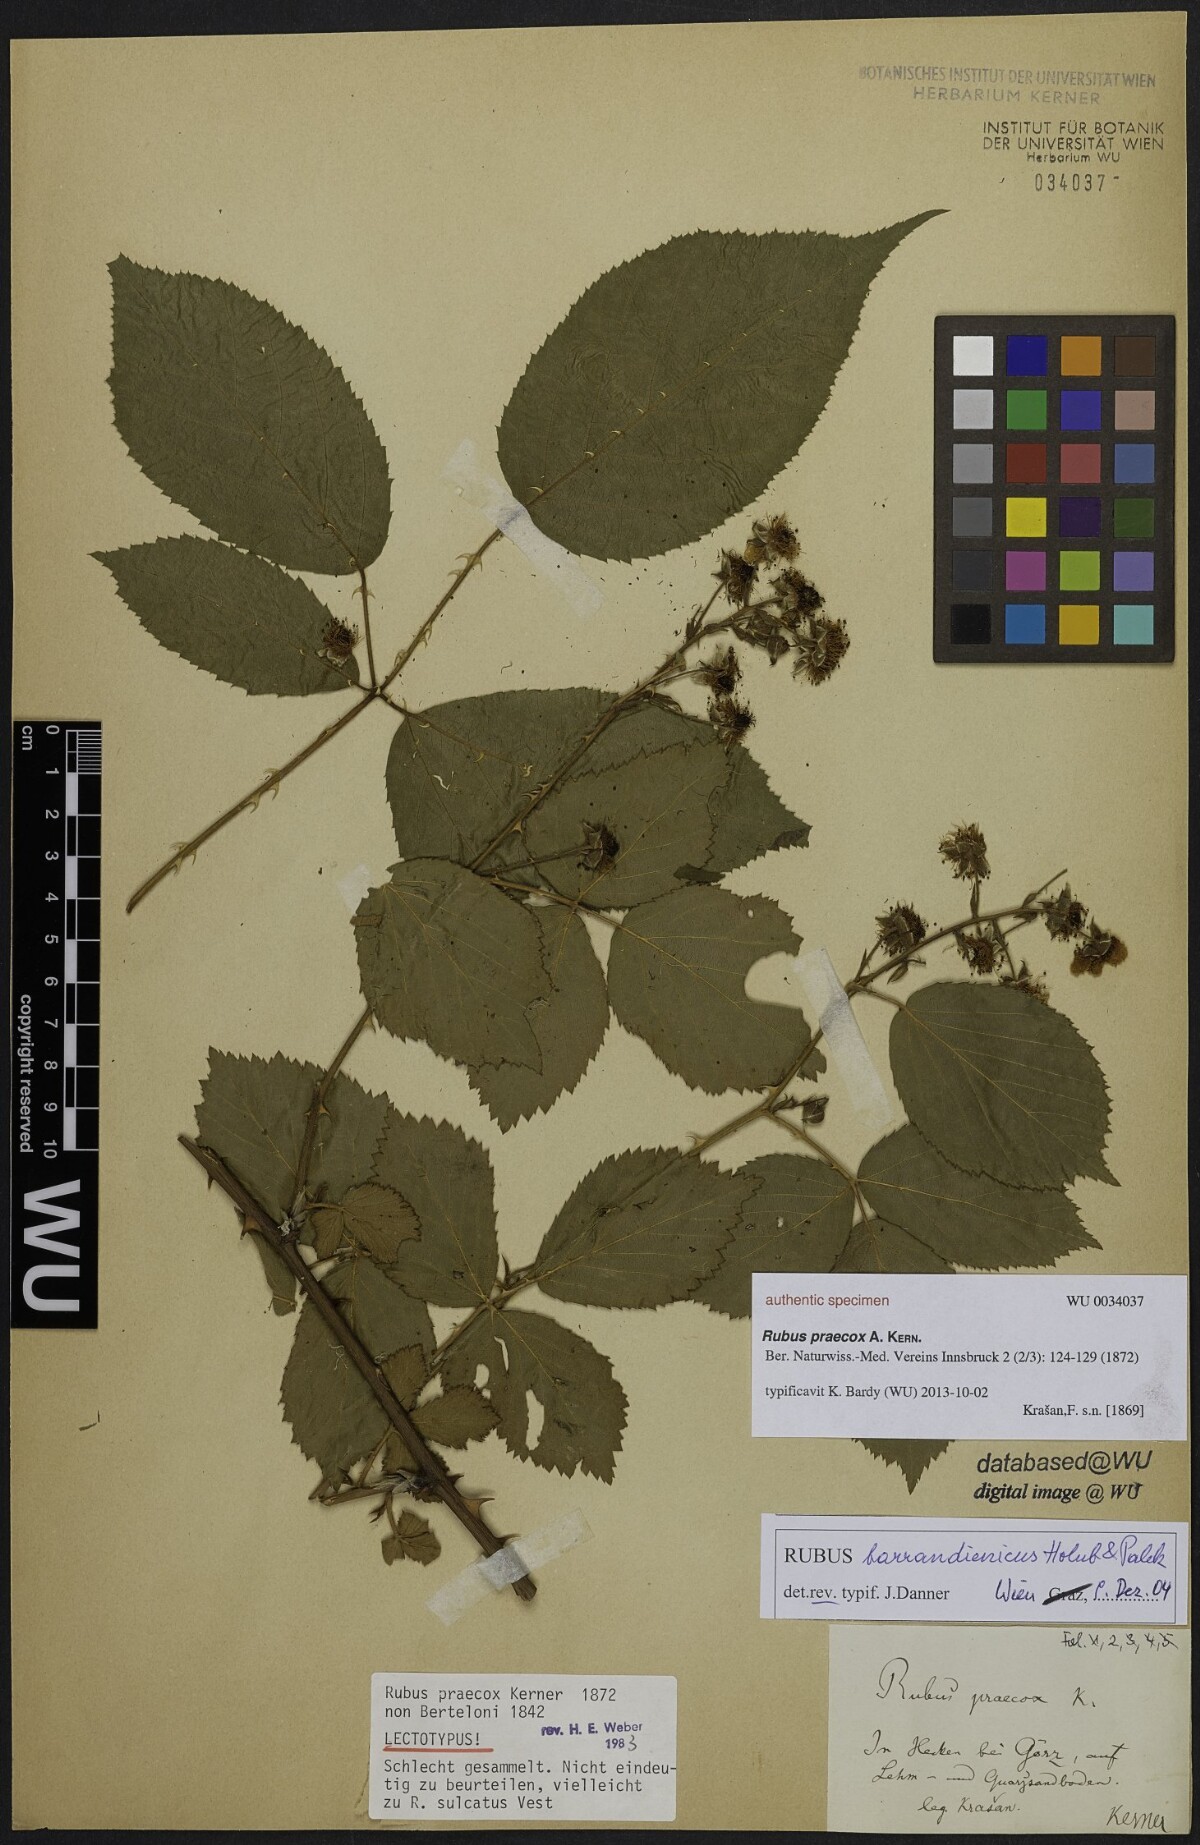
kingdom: Plantae
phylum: Tracheophyta
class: Magnoliopsida
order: Rosales
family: Rosaceae
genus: Rubus
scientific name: Rubus sulcatus
